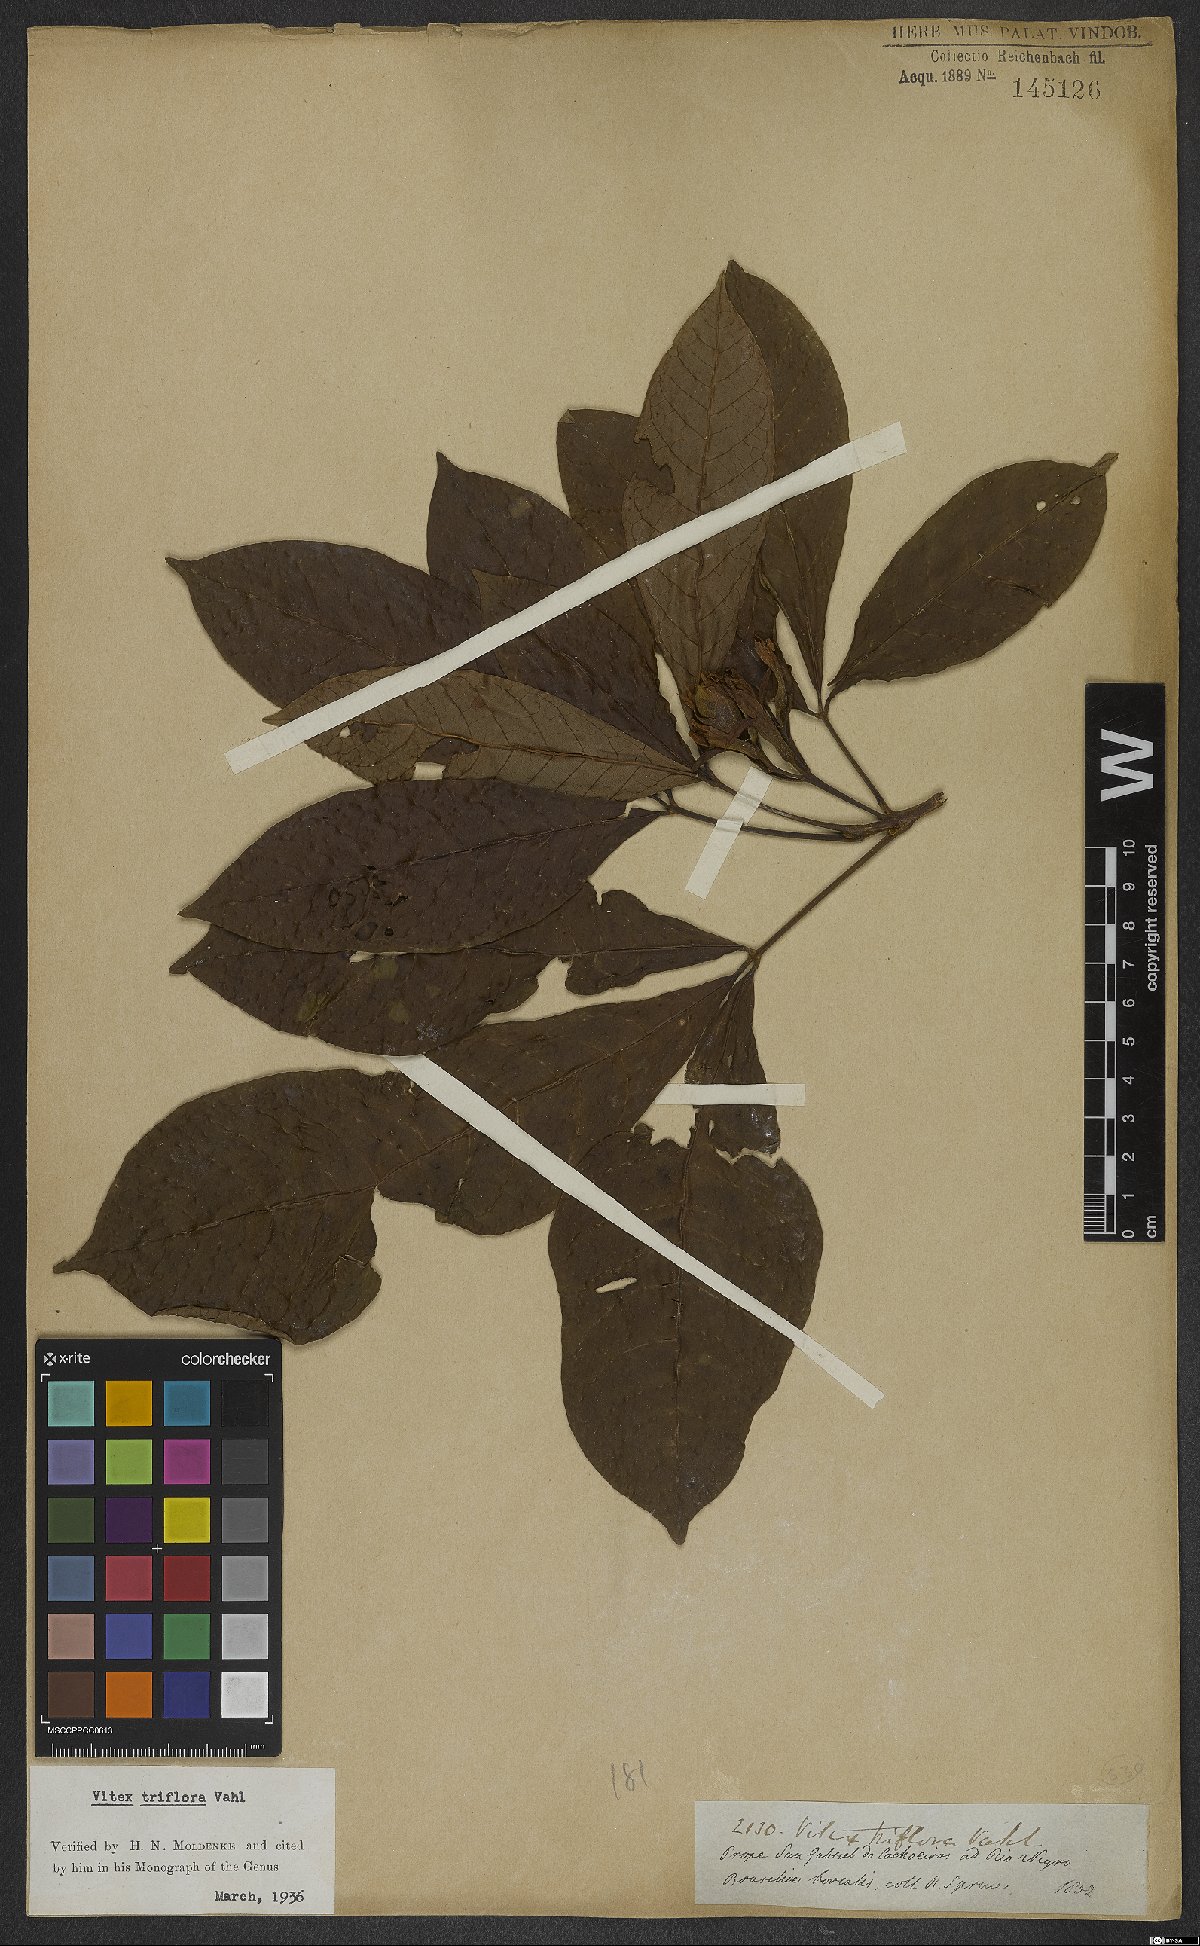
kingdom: Plantae
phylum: Tracheophyta
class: Magnoliopsida
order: Lamiales
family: Lamiaceae
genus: Vitex
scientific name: Vitex triflora
